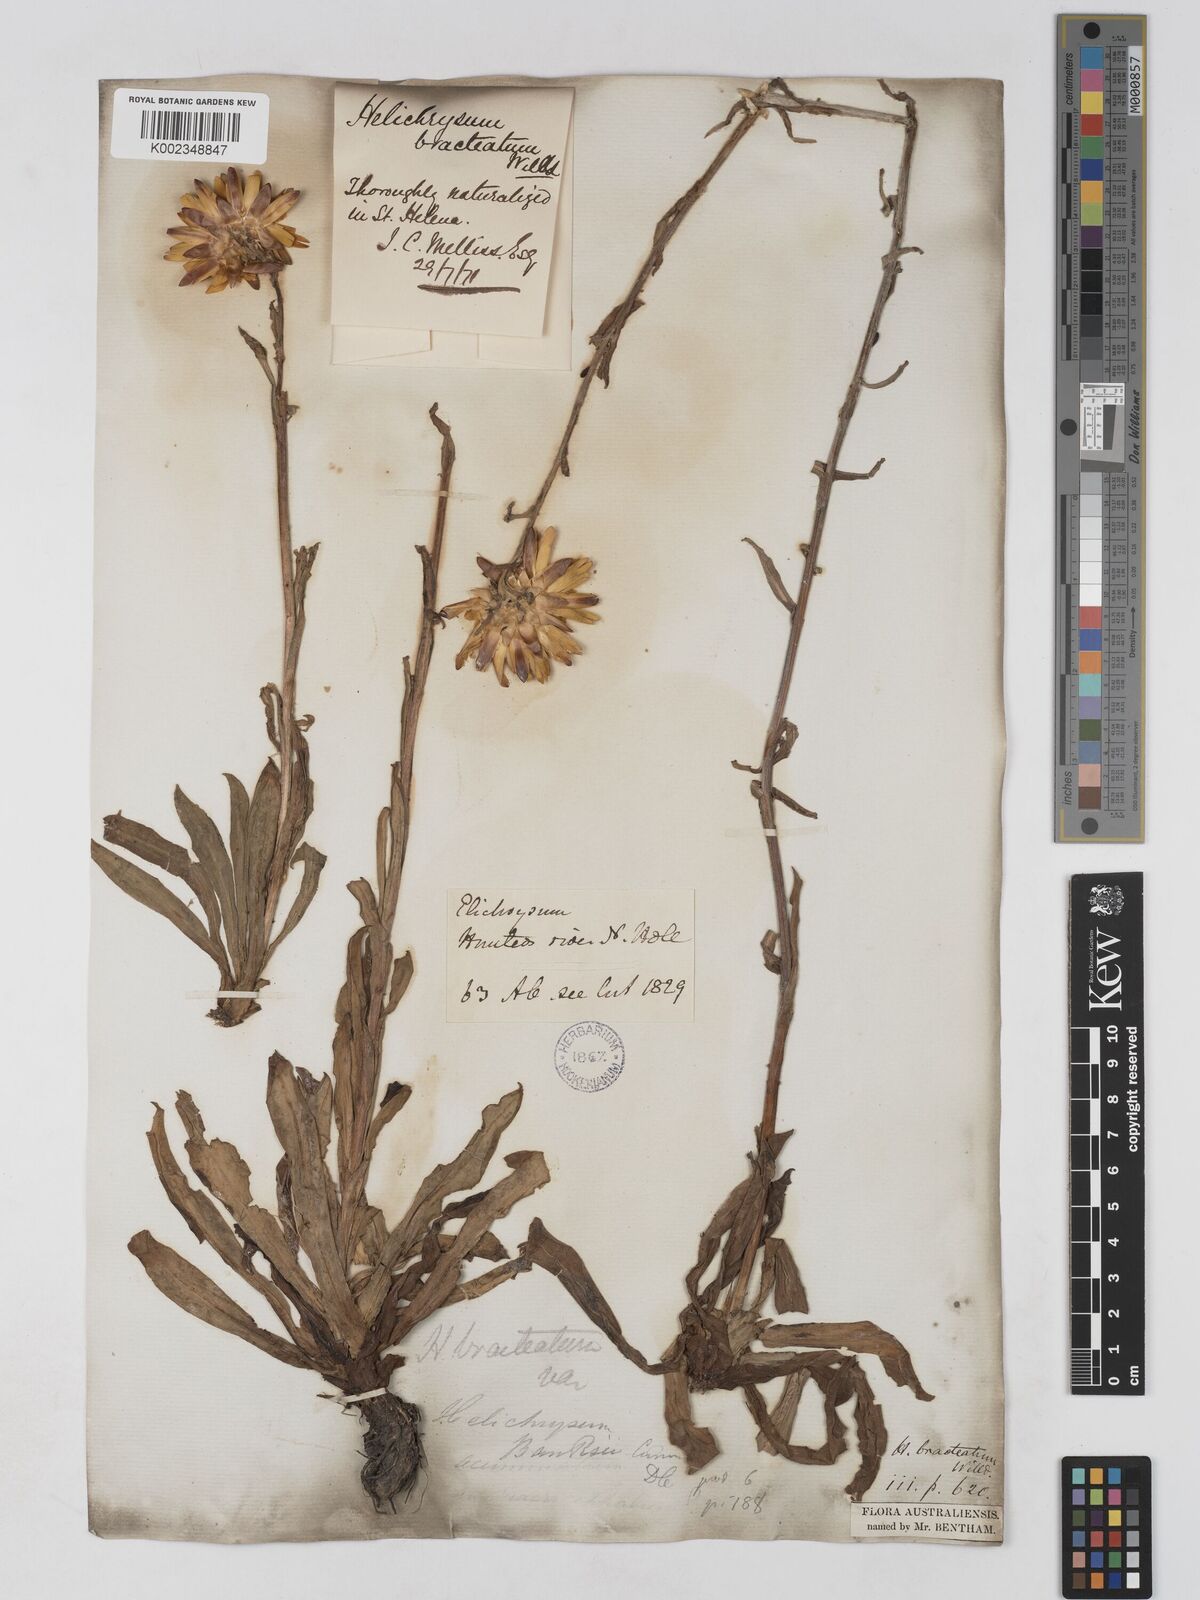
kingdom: Plantae
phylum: Tracheophyta
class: Magnoliopsida
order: Asterales
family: Asteraceae
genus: Xerochrysum
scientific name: Xerochrysum bracteatum
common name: Bracted strawflower
